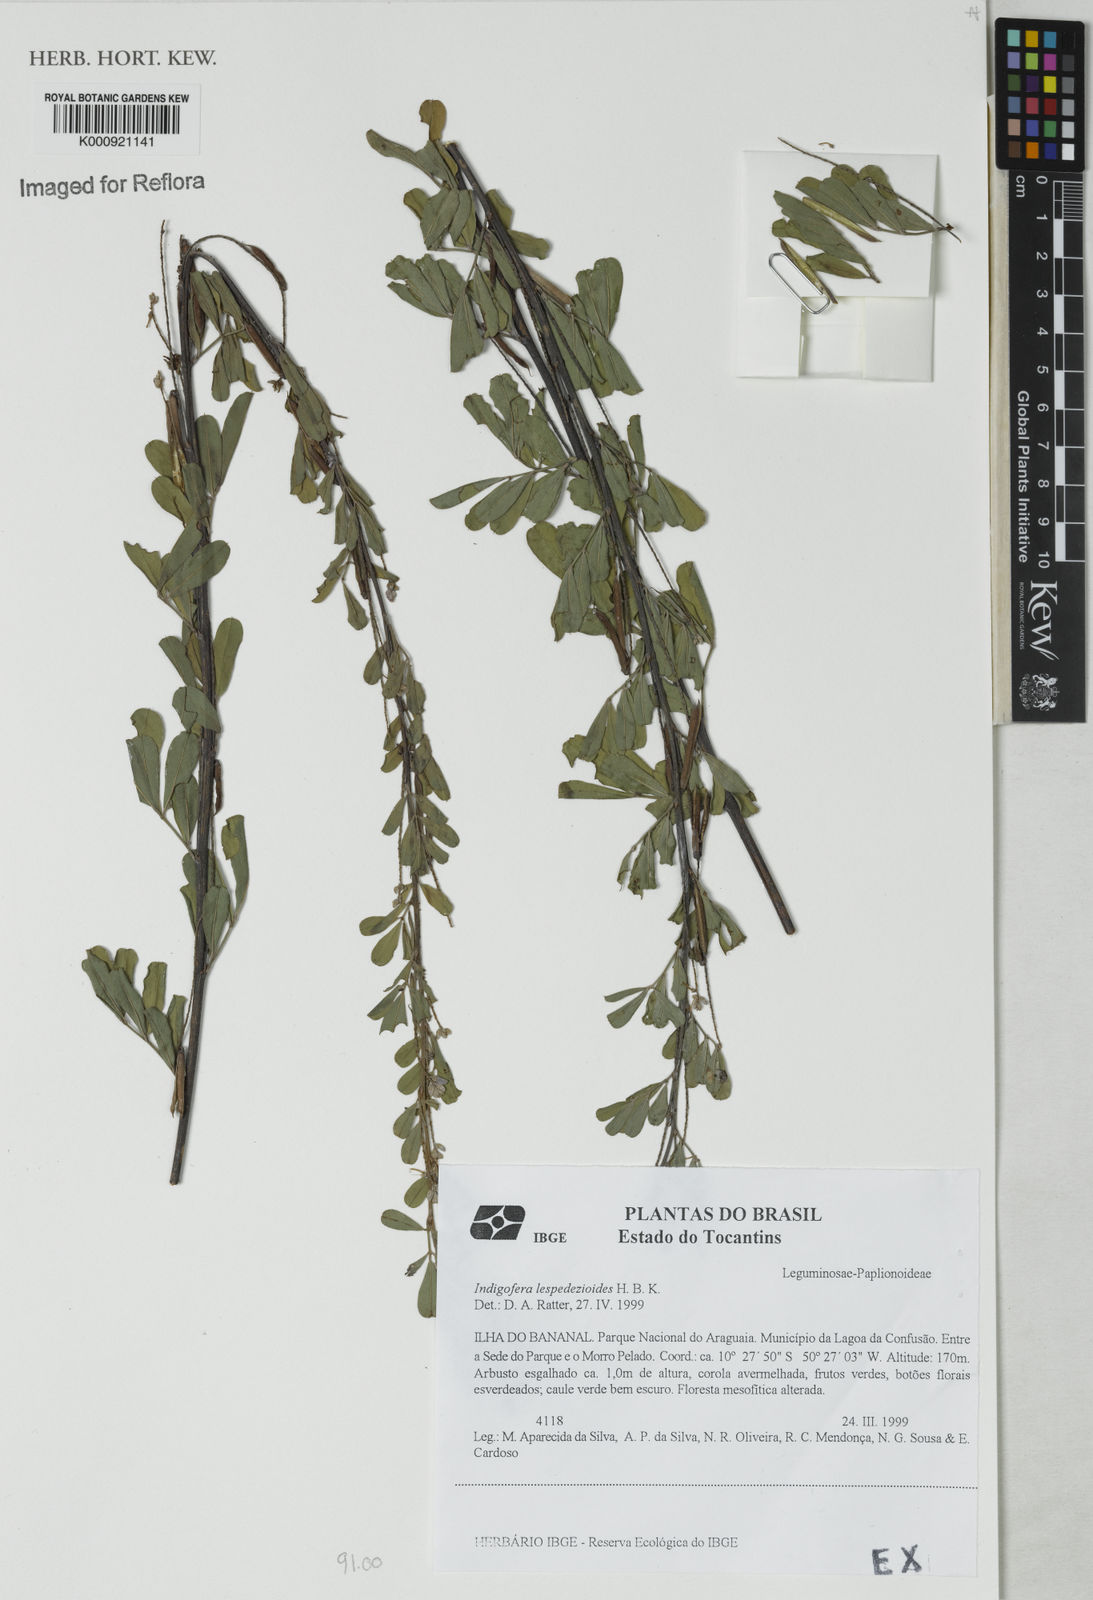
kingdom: Plantae
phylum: Tracheophyta
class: Magnoliopsida
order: Fabales
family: Fabaceae
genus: Indigofera
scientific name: Indigofera lespedezioides
